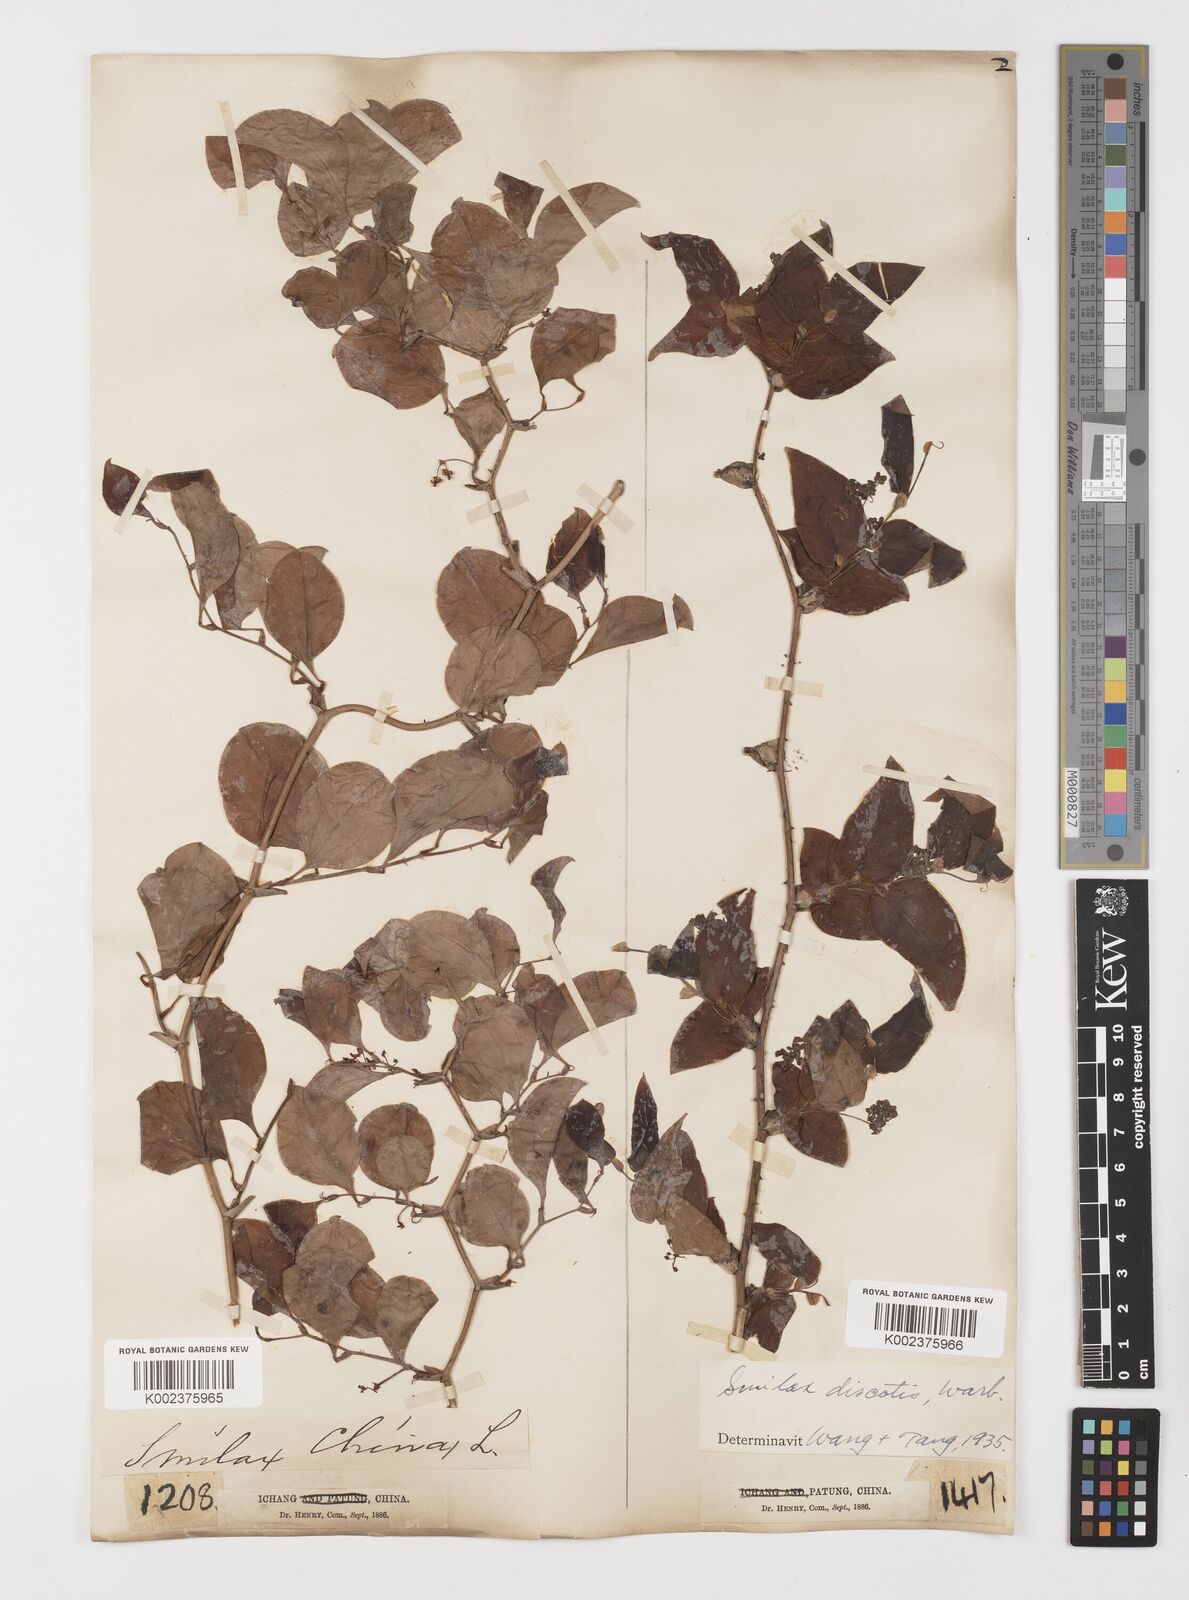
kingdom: Plantae
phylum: Tracheophyta
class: Liliopsida
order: Liliales
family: Smilacaceae
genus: Smilax
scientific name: Smilax glaucochina
